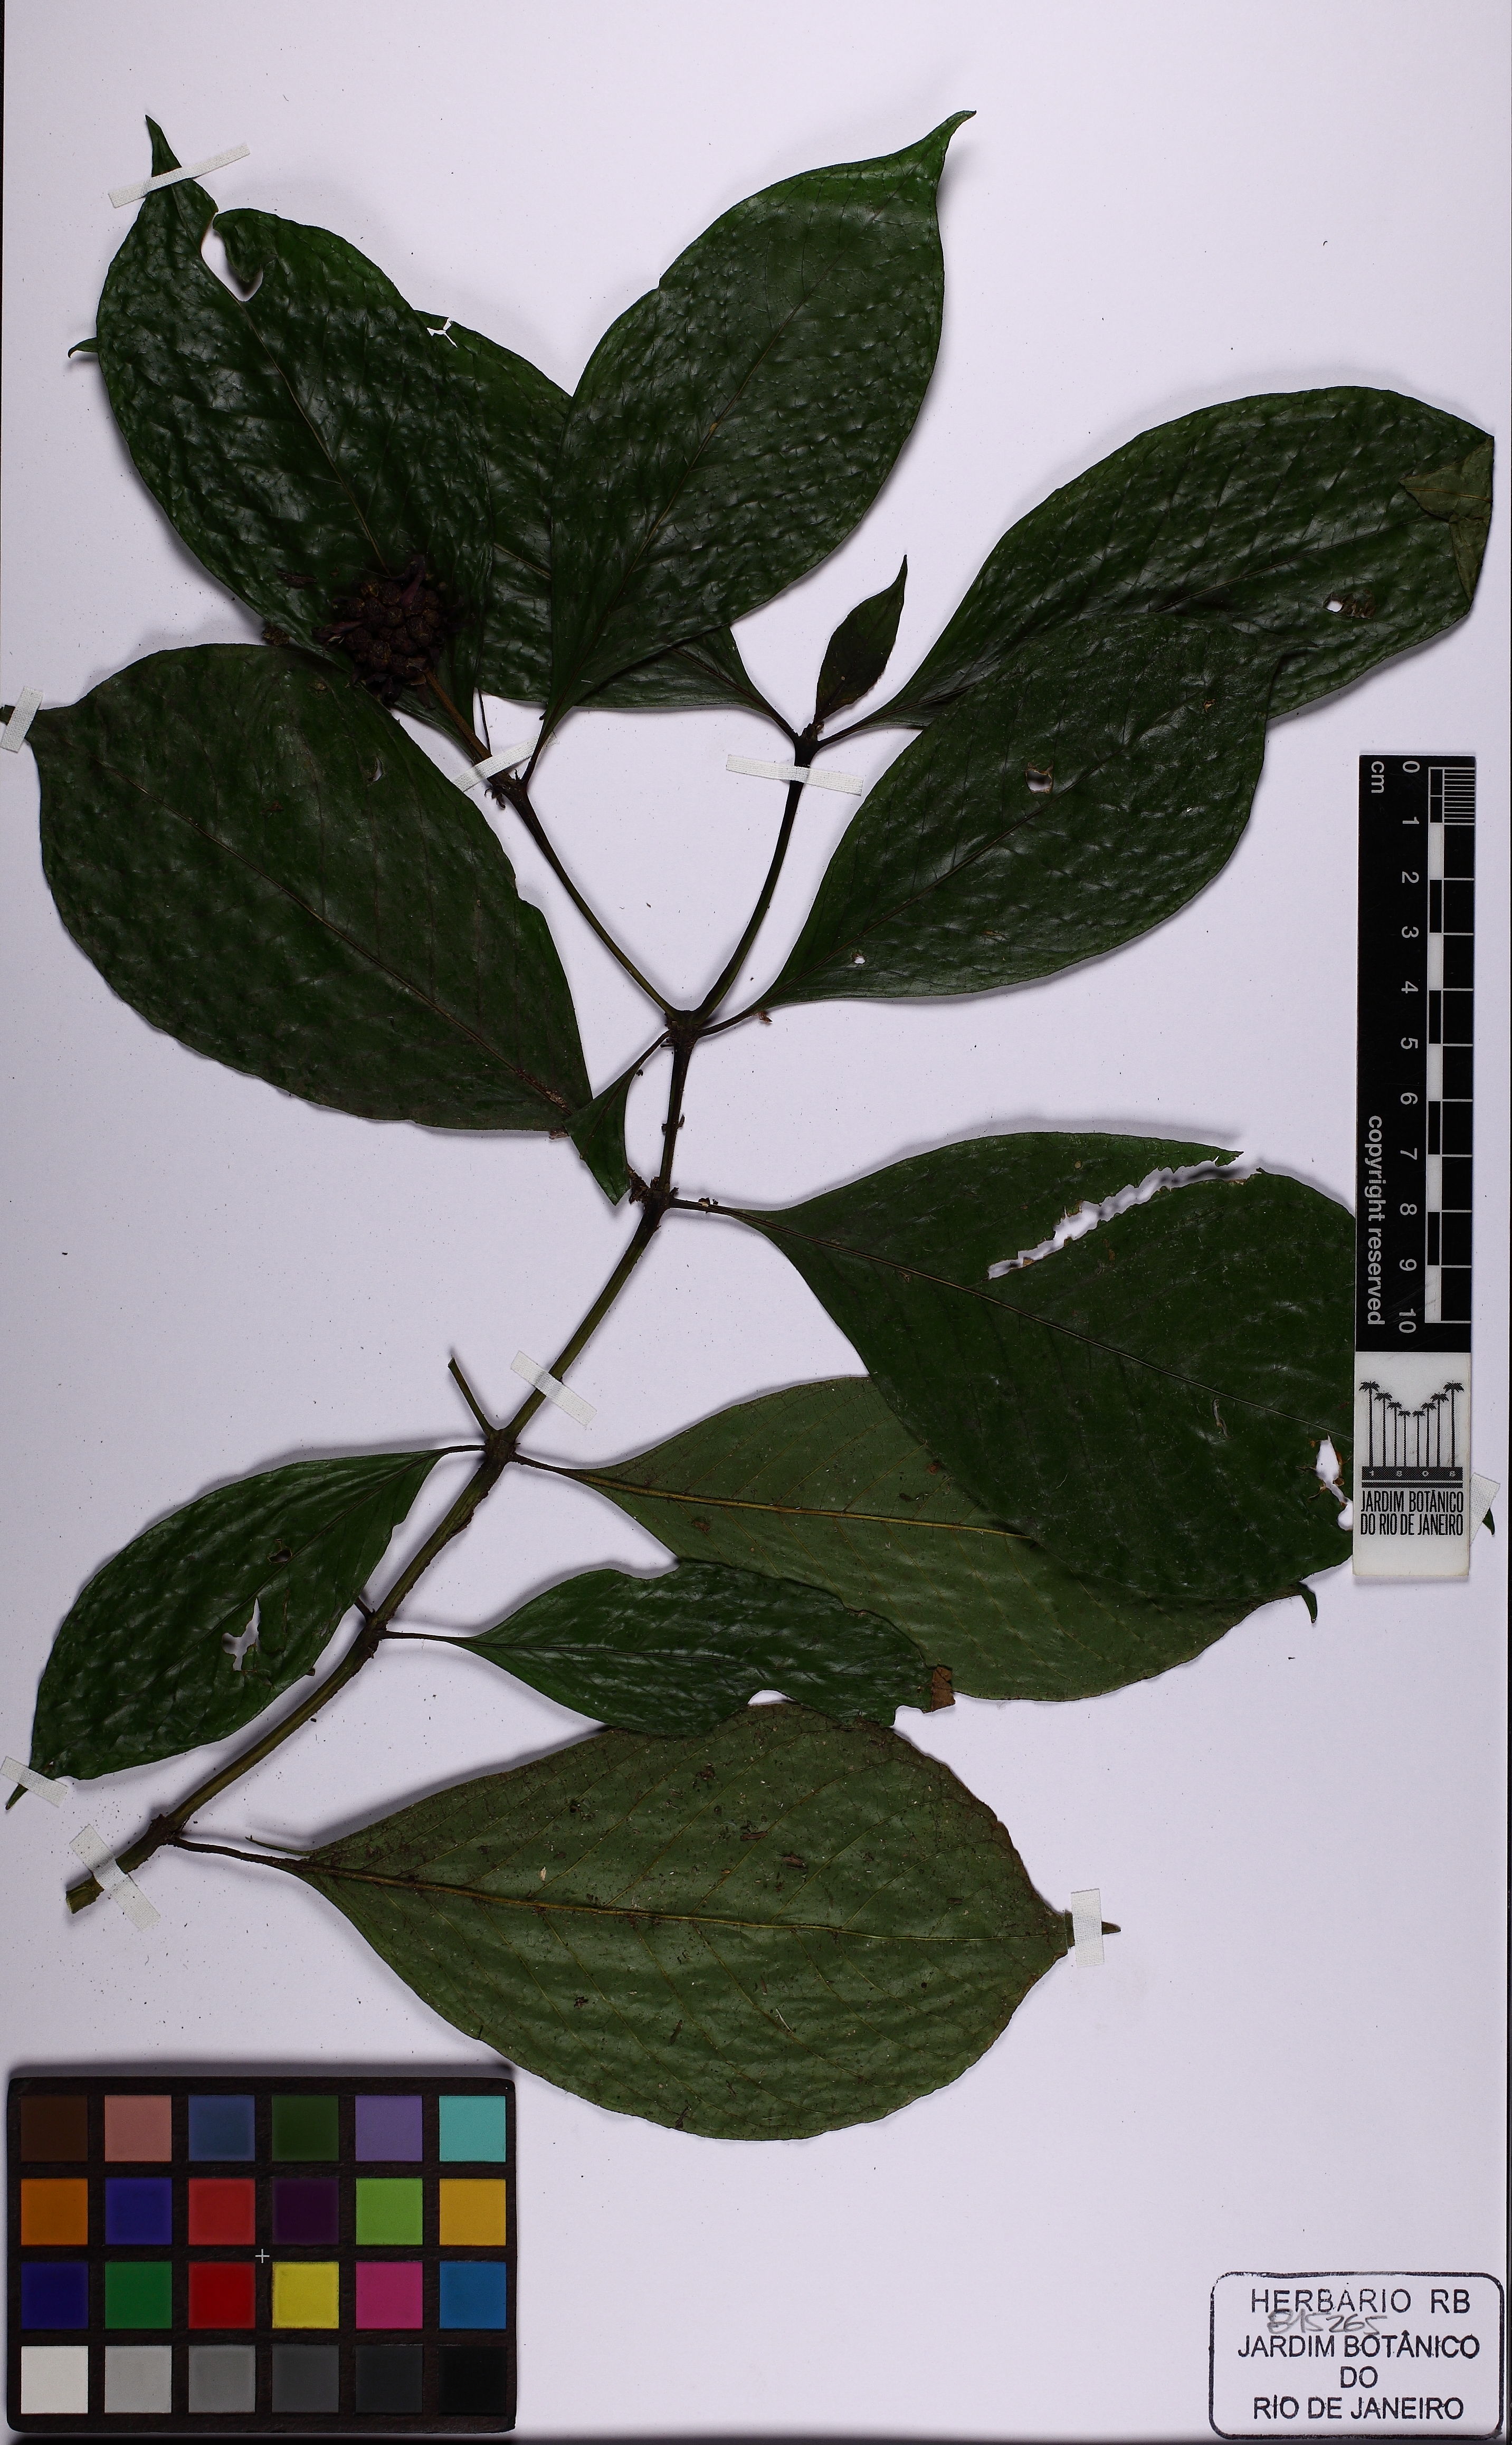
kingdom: Plantae
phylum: Tracheophyta
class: Magnoliopsida
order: Gentianales
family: Rubiaceae
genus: Palicourea
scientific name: Palicourea hoffmannseggiana
